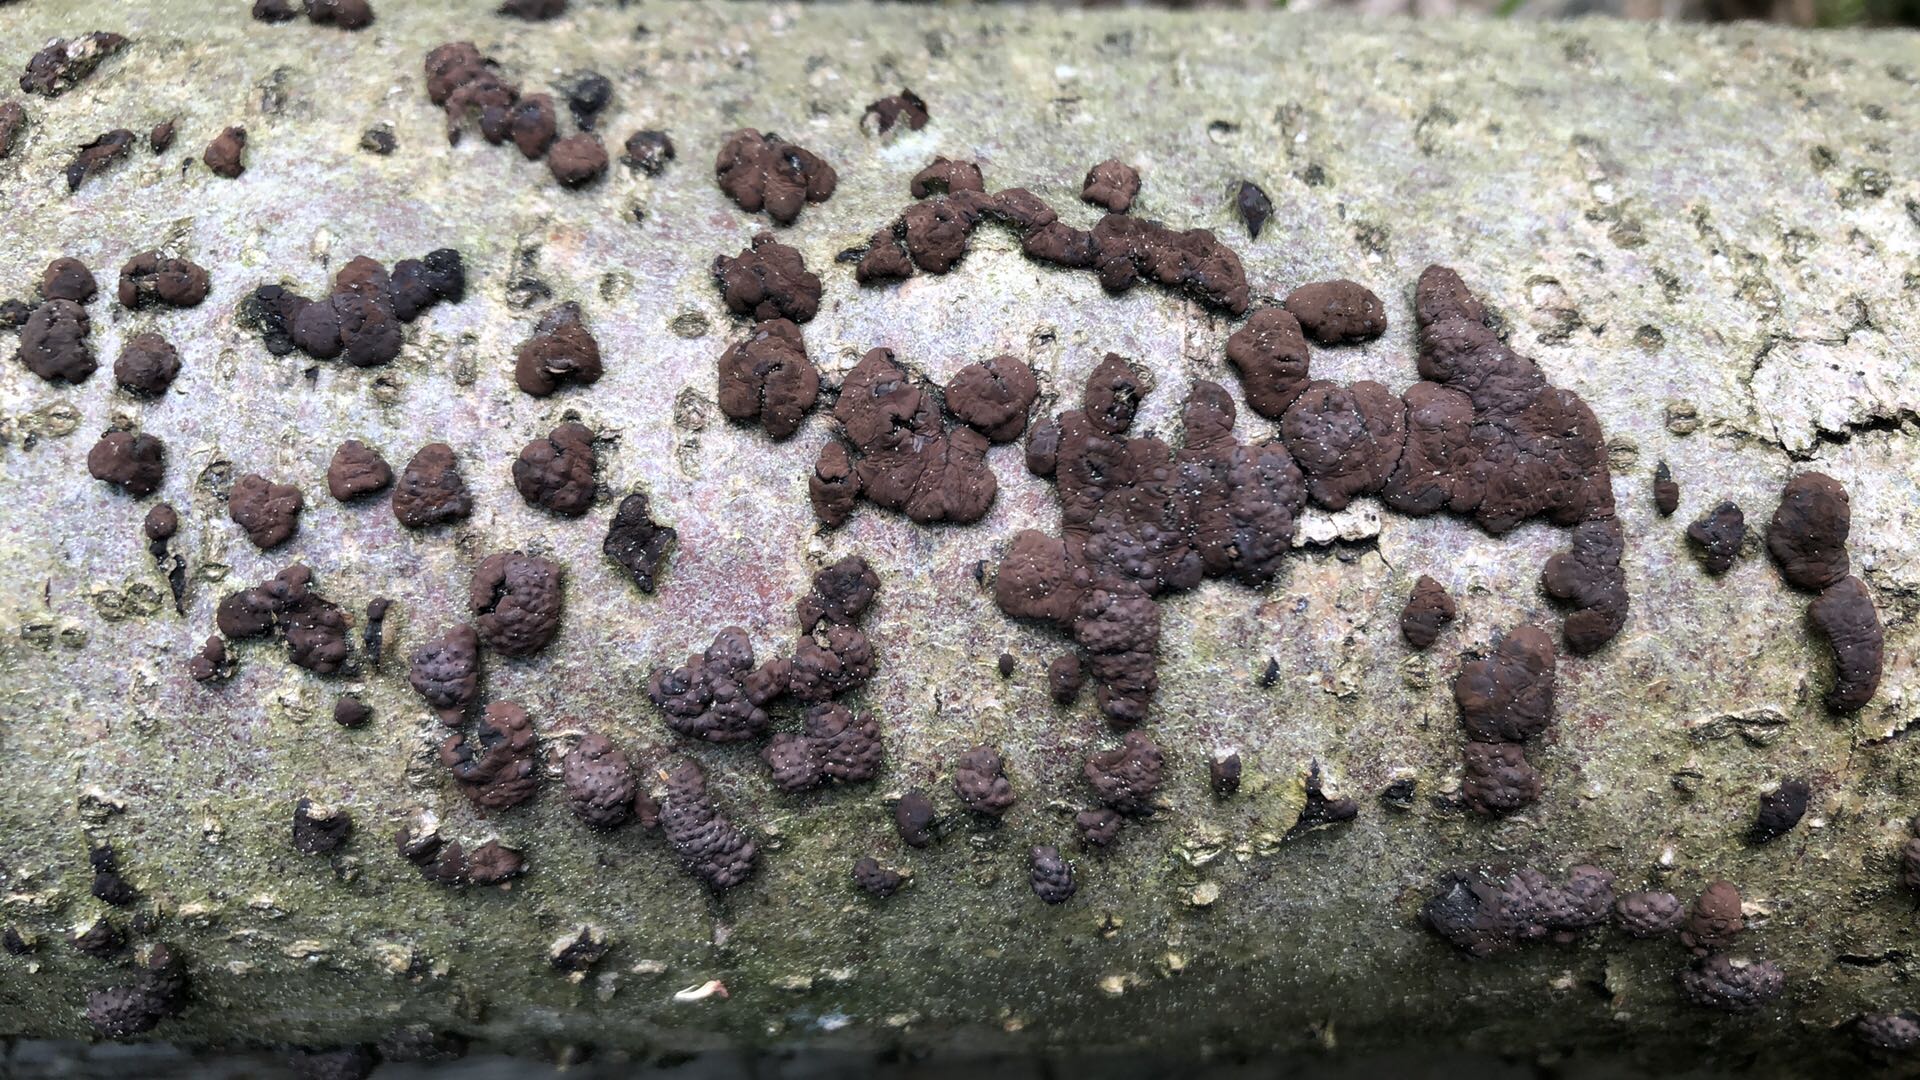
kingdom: Fungi
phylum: Ascomycota
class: Sordariomycetes
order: Xylariales
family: Hypoxylaceae
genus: Jackrogersella
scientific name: Jackrogersella multiformis
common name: foranderlig kulbær
